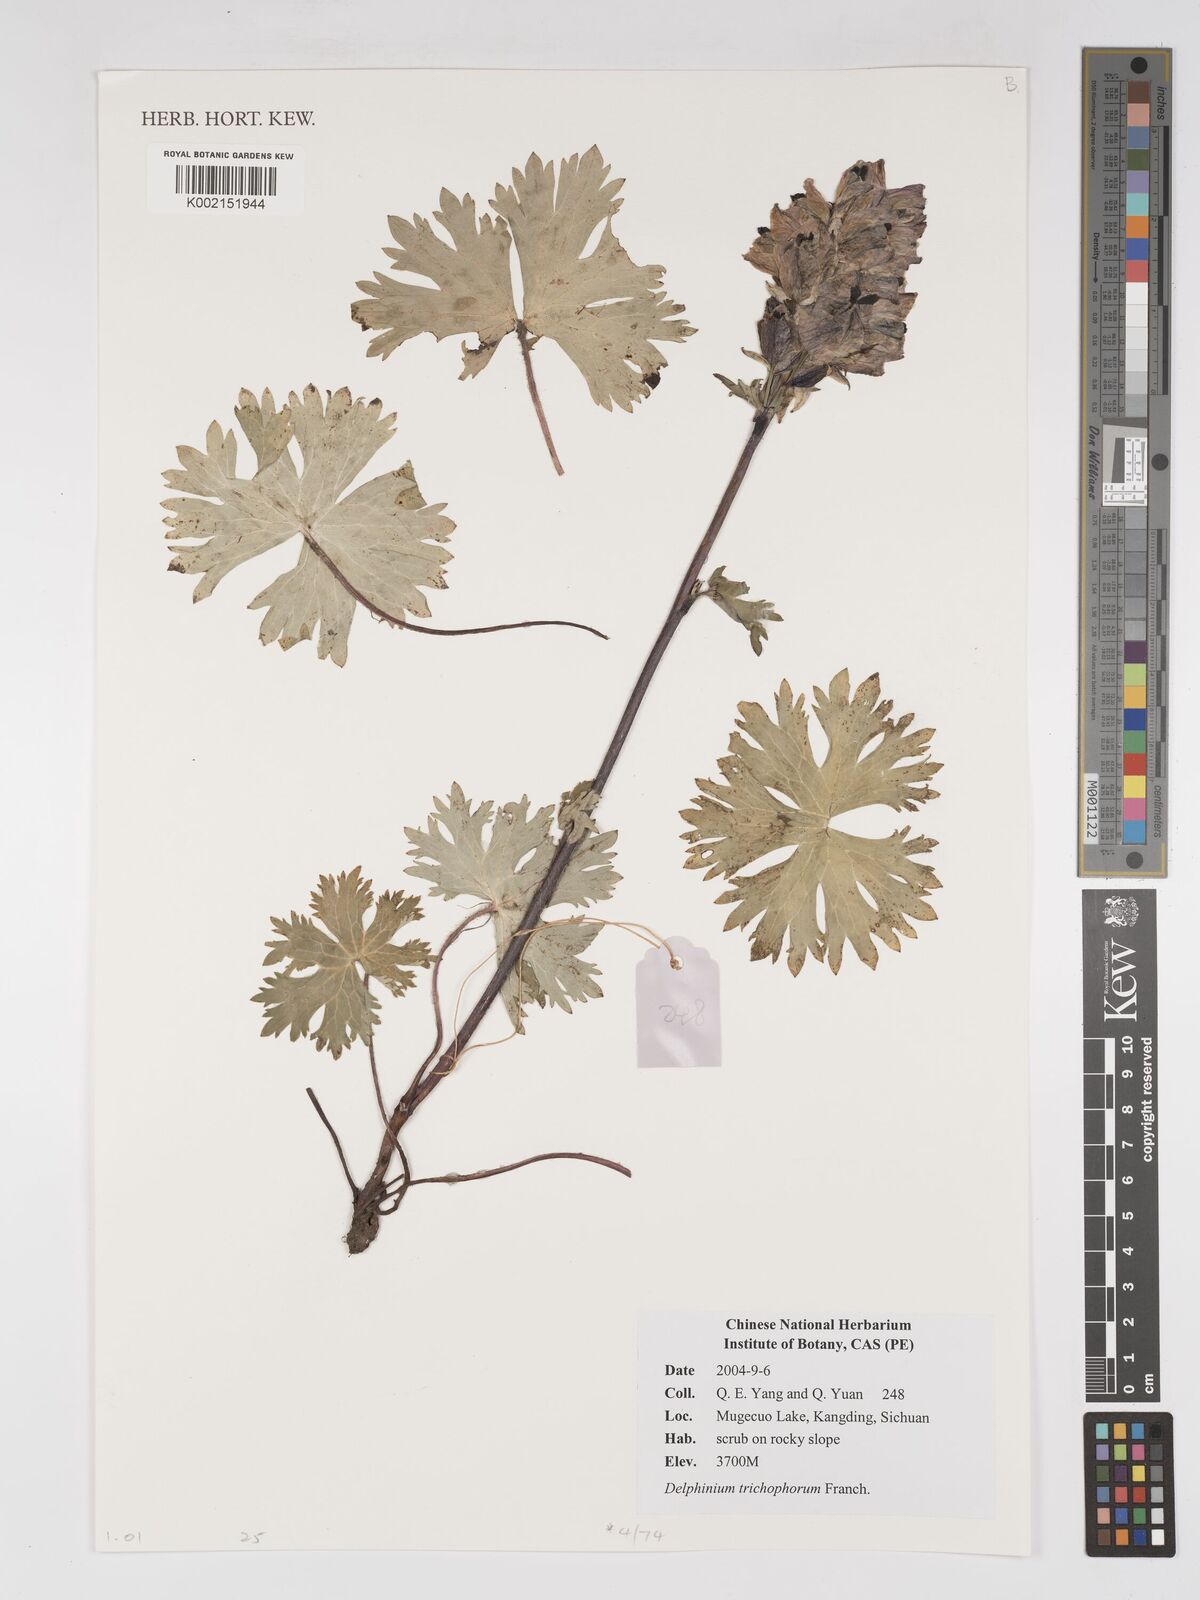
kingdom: Plantae
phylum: Tracheophyta
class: Magnoliopsida
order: Ranunculales
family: Ranunculaceae
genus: Delphinium
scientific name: Delphinium trichophorum
